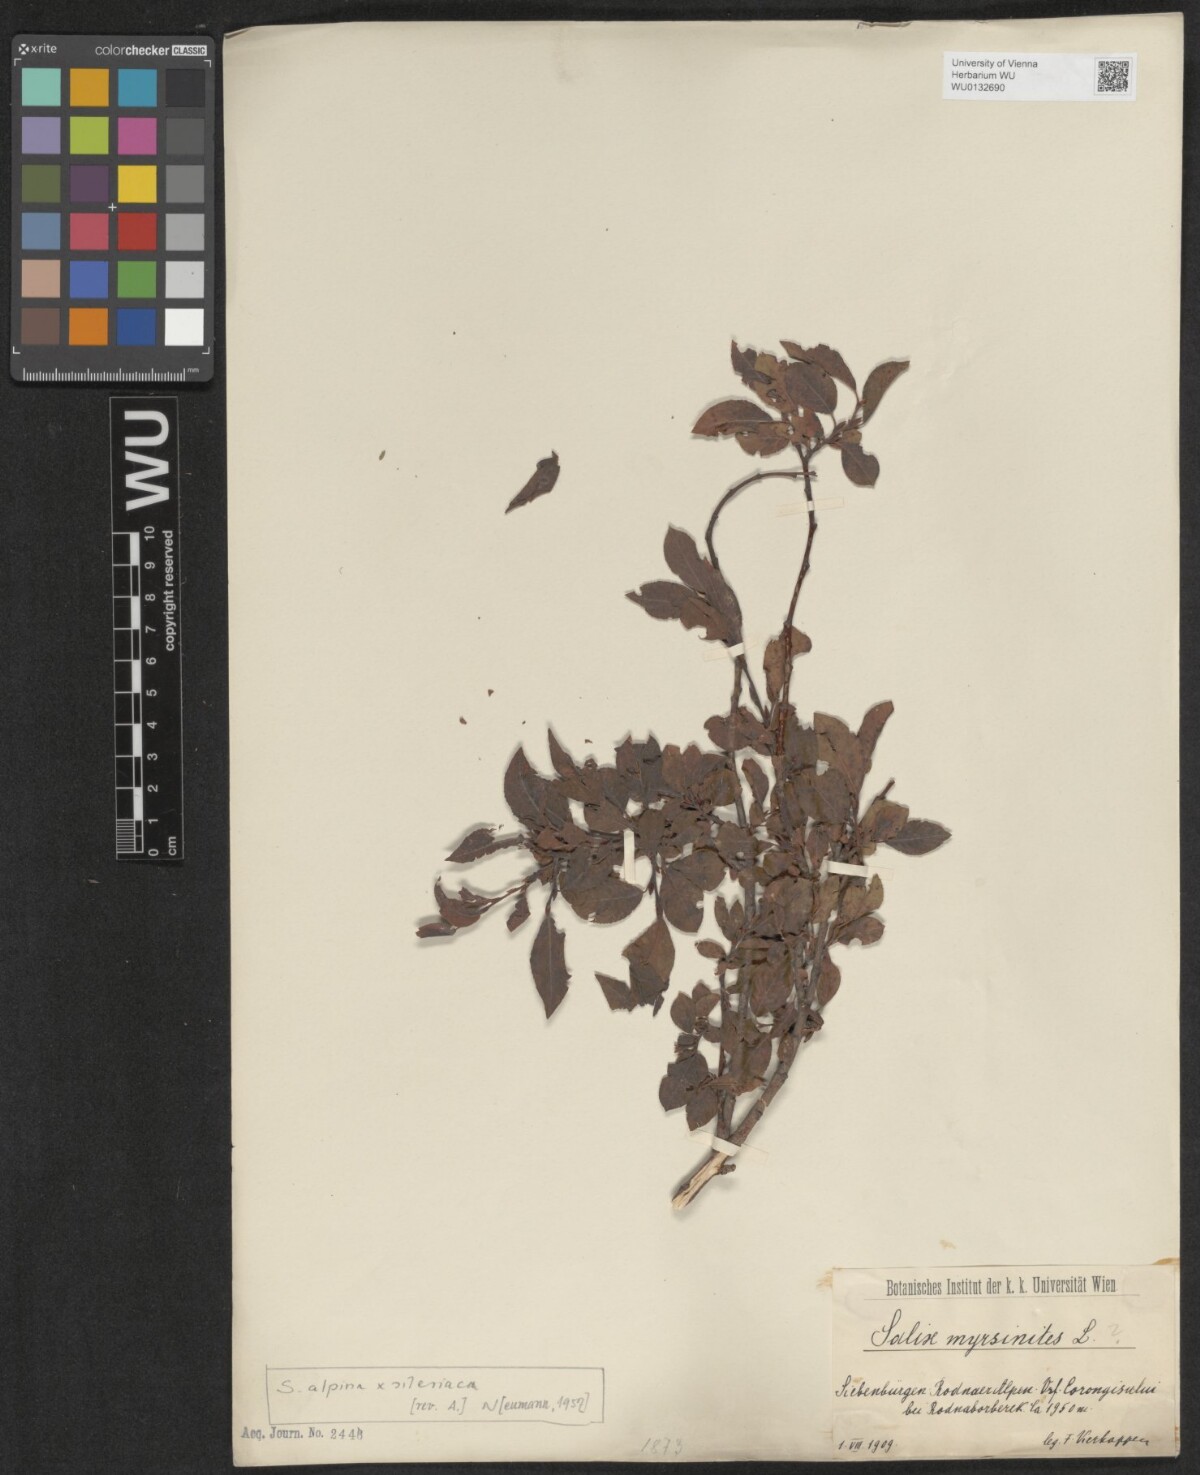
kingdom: Plantae
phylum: Tracheophyta
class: Magnoliopsida
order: Malpighiales
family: Salicaceae
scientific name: Salicaceae
